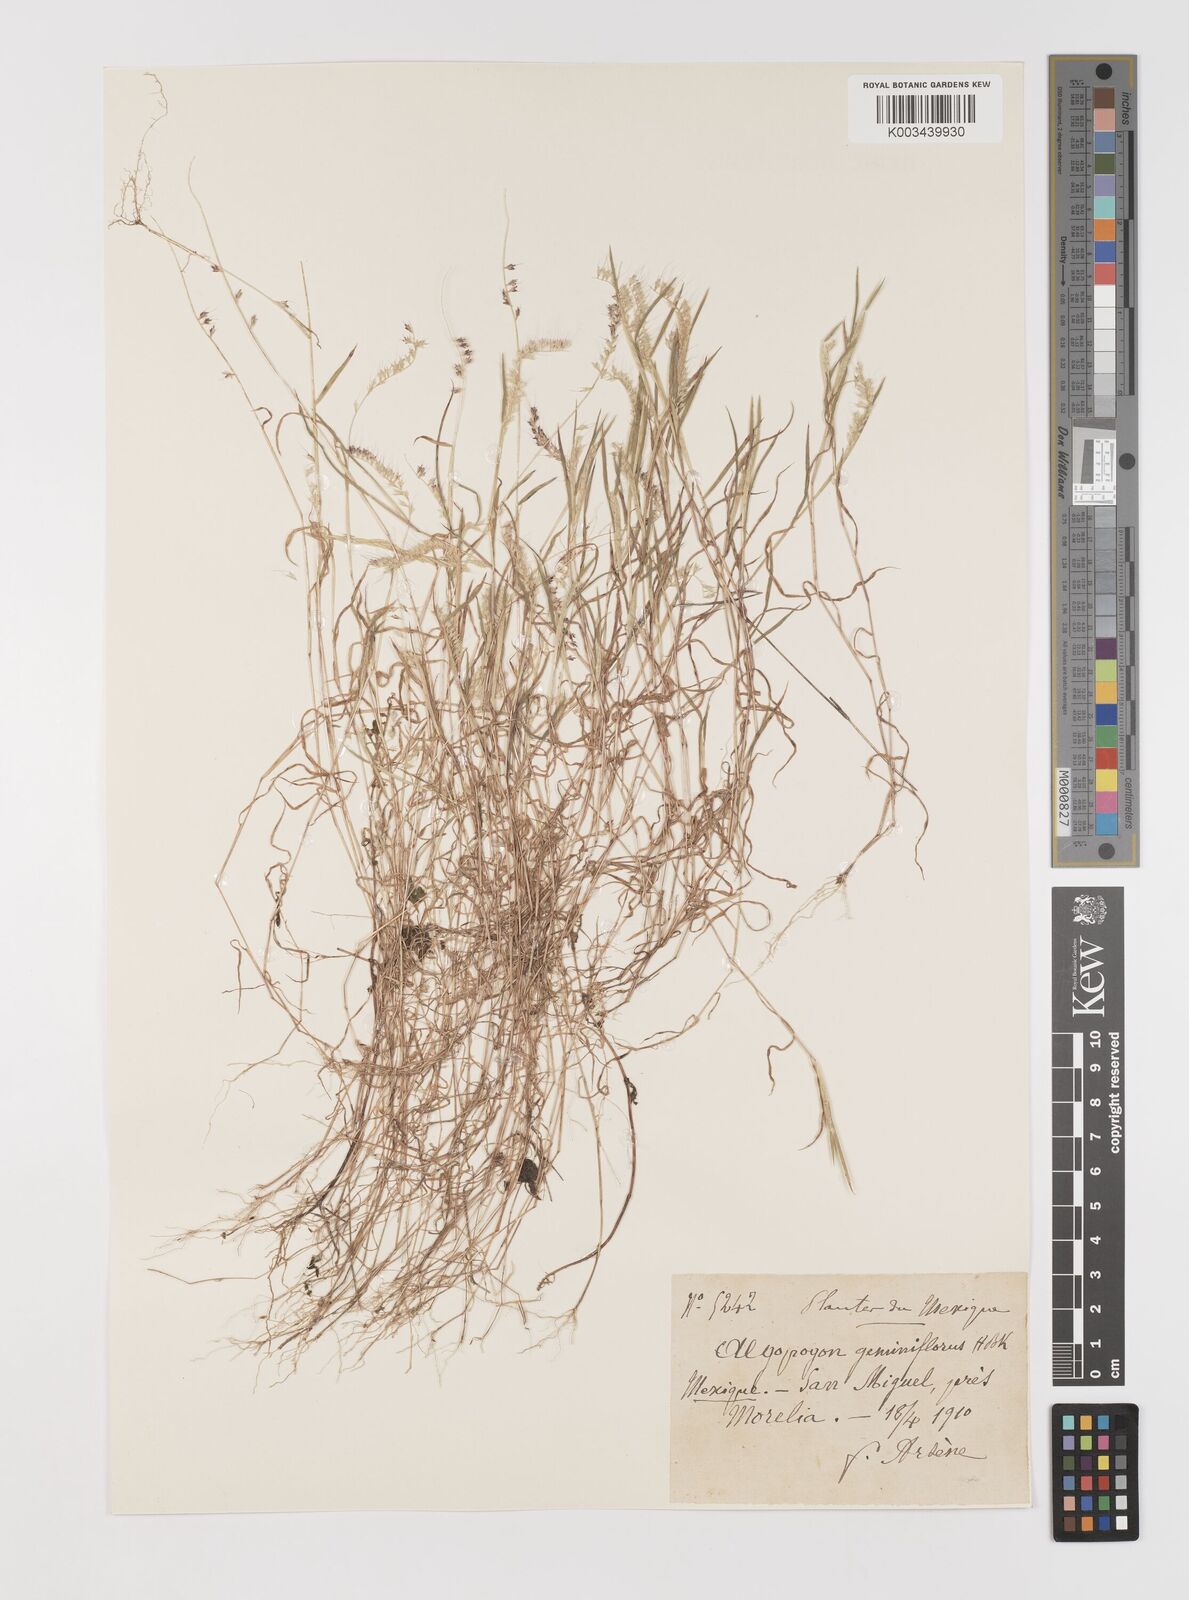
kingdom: Plantae
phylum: Tracheophyta
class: Liliopsida
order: Poales
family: Poaceae
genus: Muhlenbergia
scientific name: Muhlenbergia uniseta
